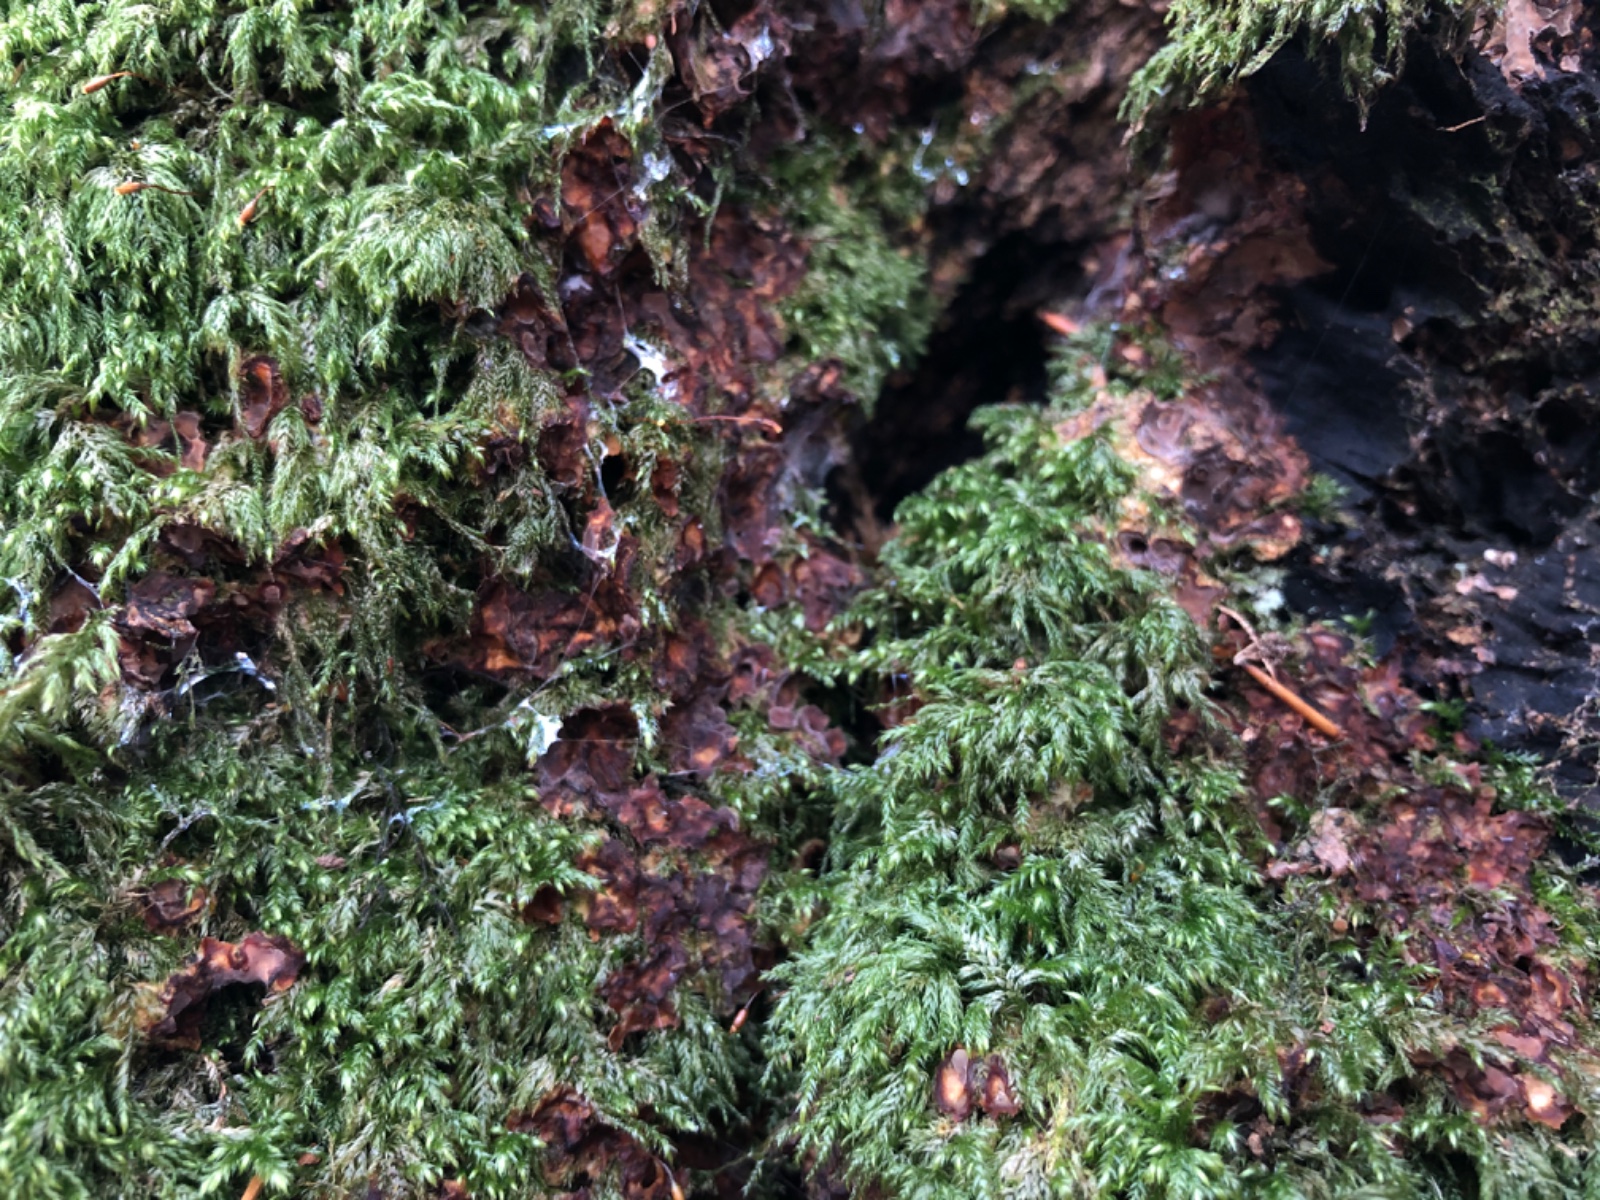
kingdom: Fungi
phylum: Basidiomycota
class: Agaricomycetes
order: Russulales
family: Stereaceae
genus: Stereum
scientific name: Stereum gausapatum
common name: tynd lædersvamp
